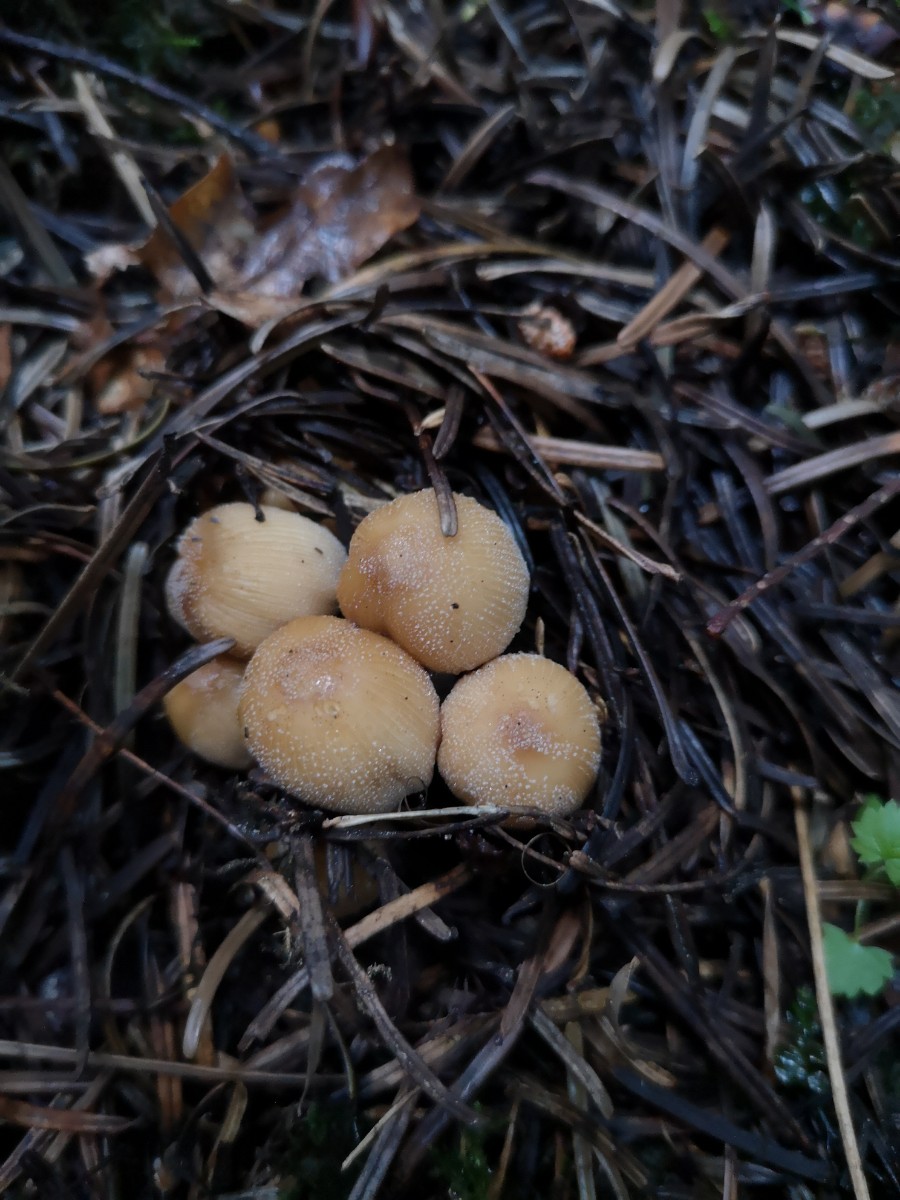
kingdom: Fungi
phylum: Basidiomycota
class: Agaricomycetes
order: Agaricales
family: Psathyrellaceae
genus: Coprinellus
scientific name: Coprinellus micaceus
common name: glimmer-blækhat
